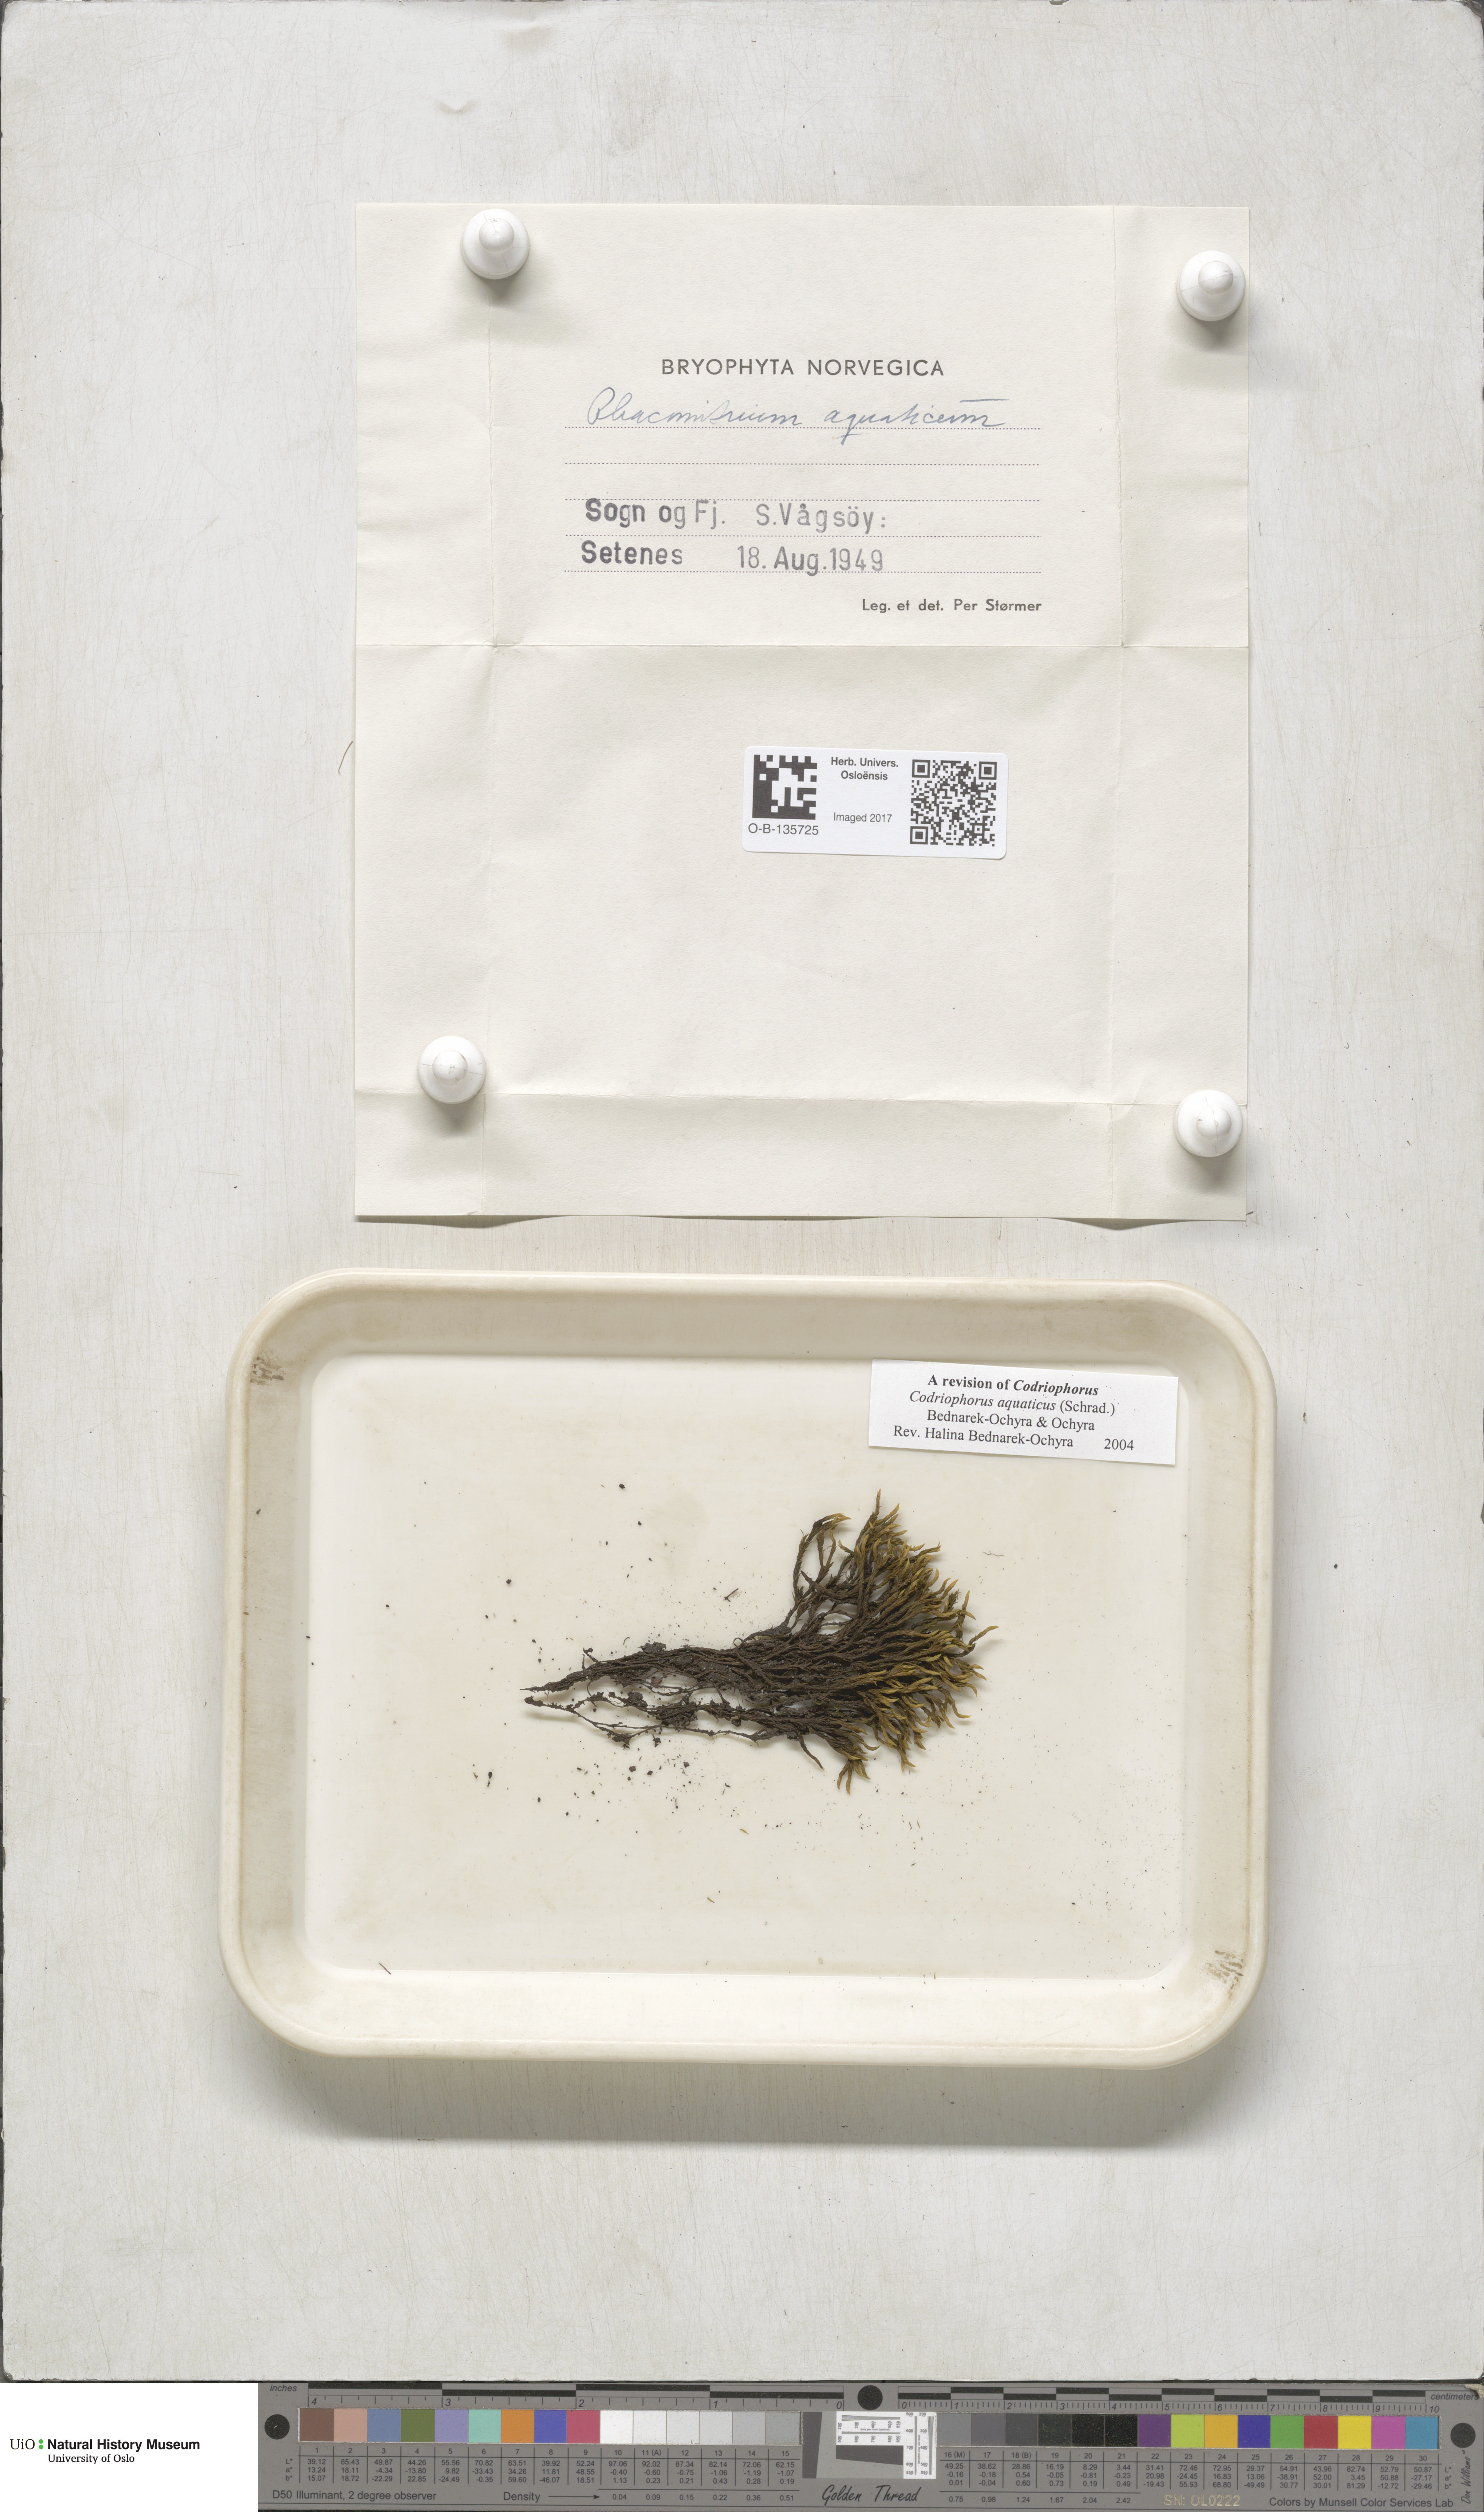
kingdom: Plantae
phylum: Bryophyta
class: Bryopsida
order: Grimmiales
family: Grimmiaceae
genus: Codriophorus
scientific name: Codriophorus aquaticus
